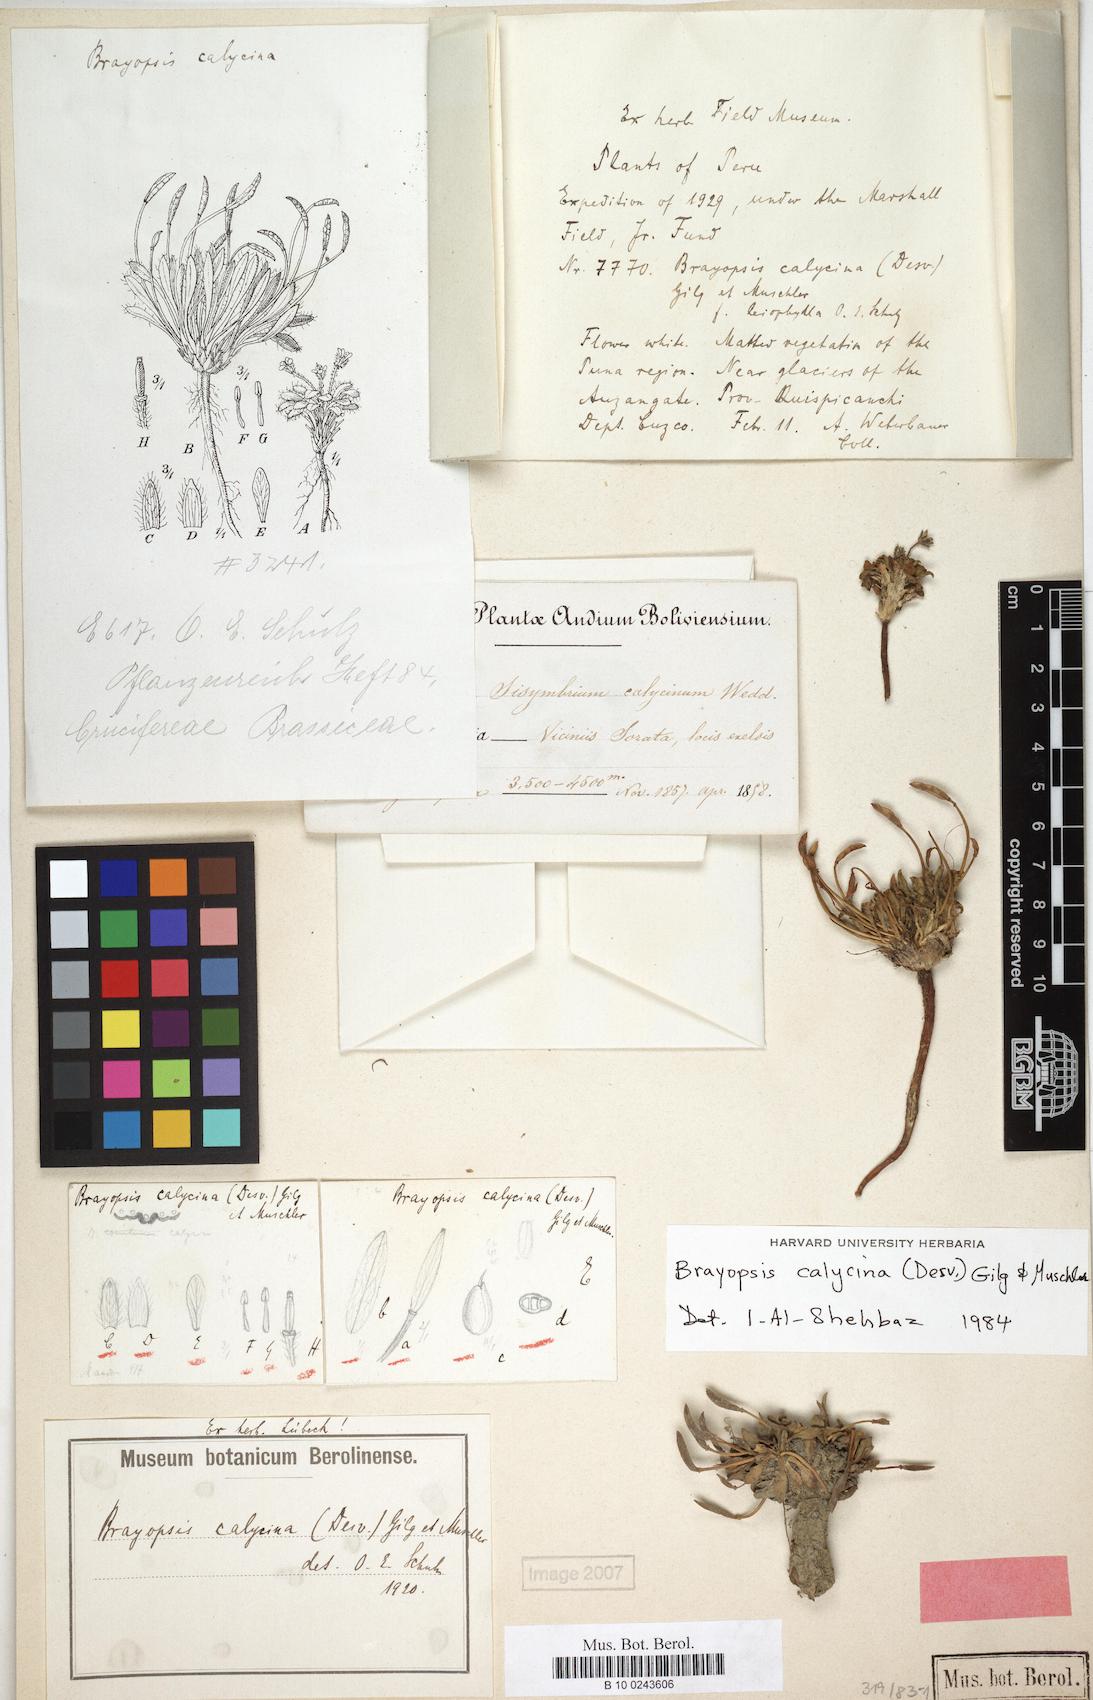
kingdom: Plantae
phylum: Tracheophyta
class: Magnoliopsida
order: Brassicales
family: Brassicaceae
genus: Brayopsis
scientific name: Brayopsis calycina
